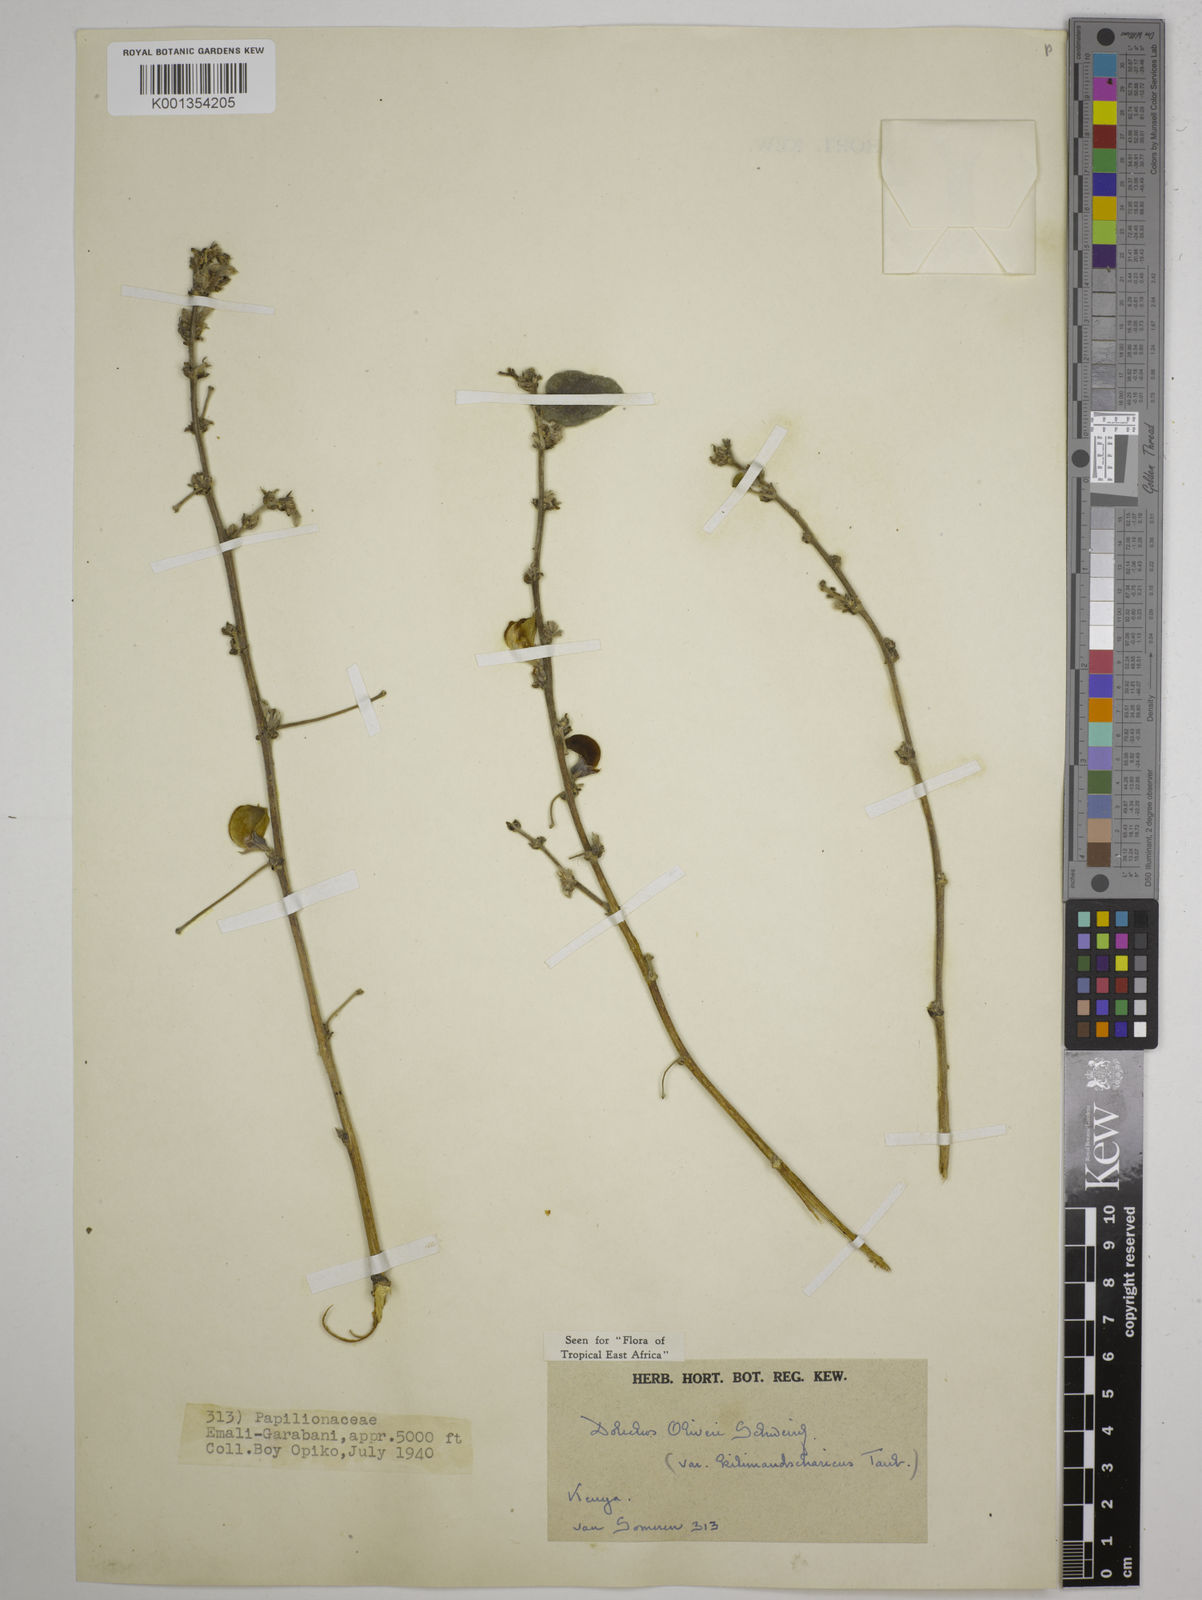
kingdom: Plantae
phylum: Tracheophyta
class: Magnoliopsida
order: Fabales
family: Fabaceae
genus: Dolichos
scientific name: Dolichos
